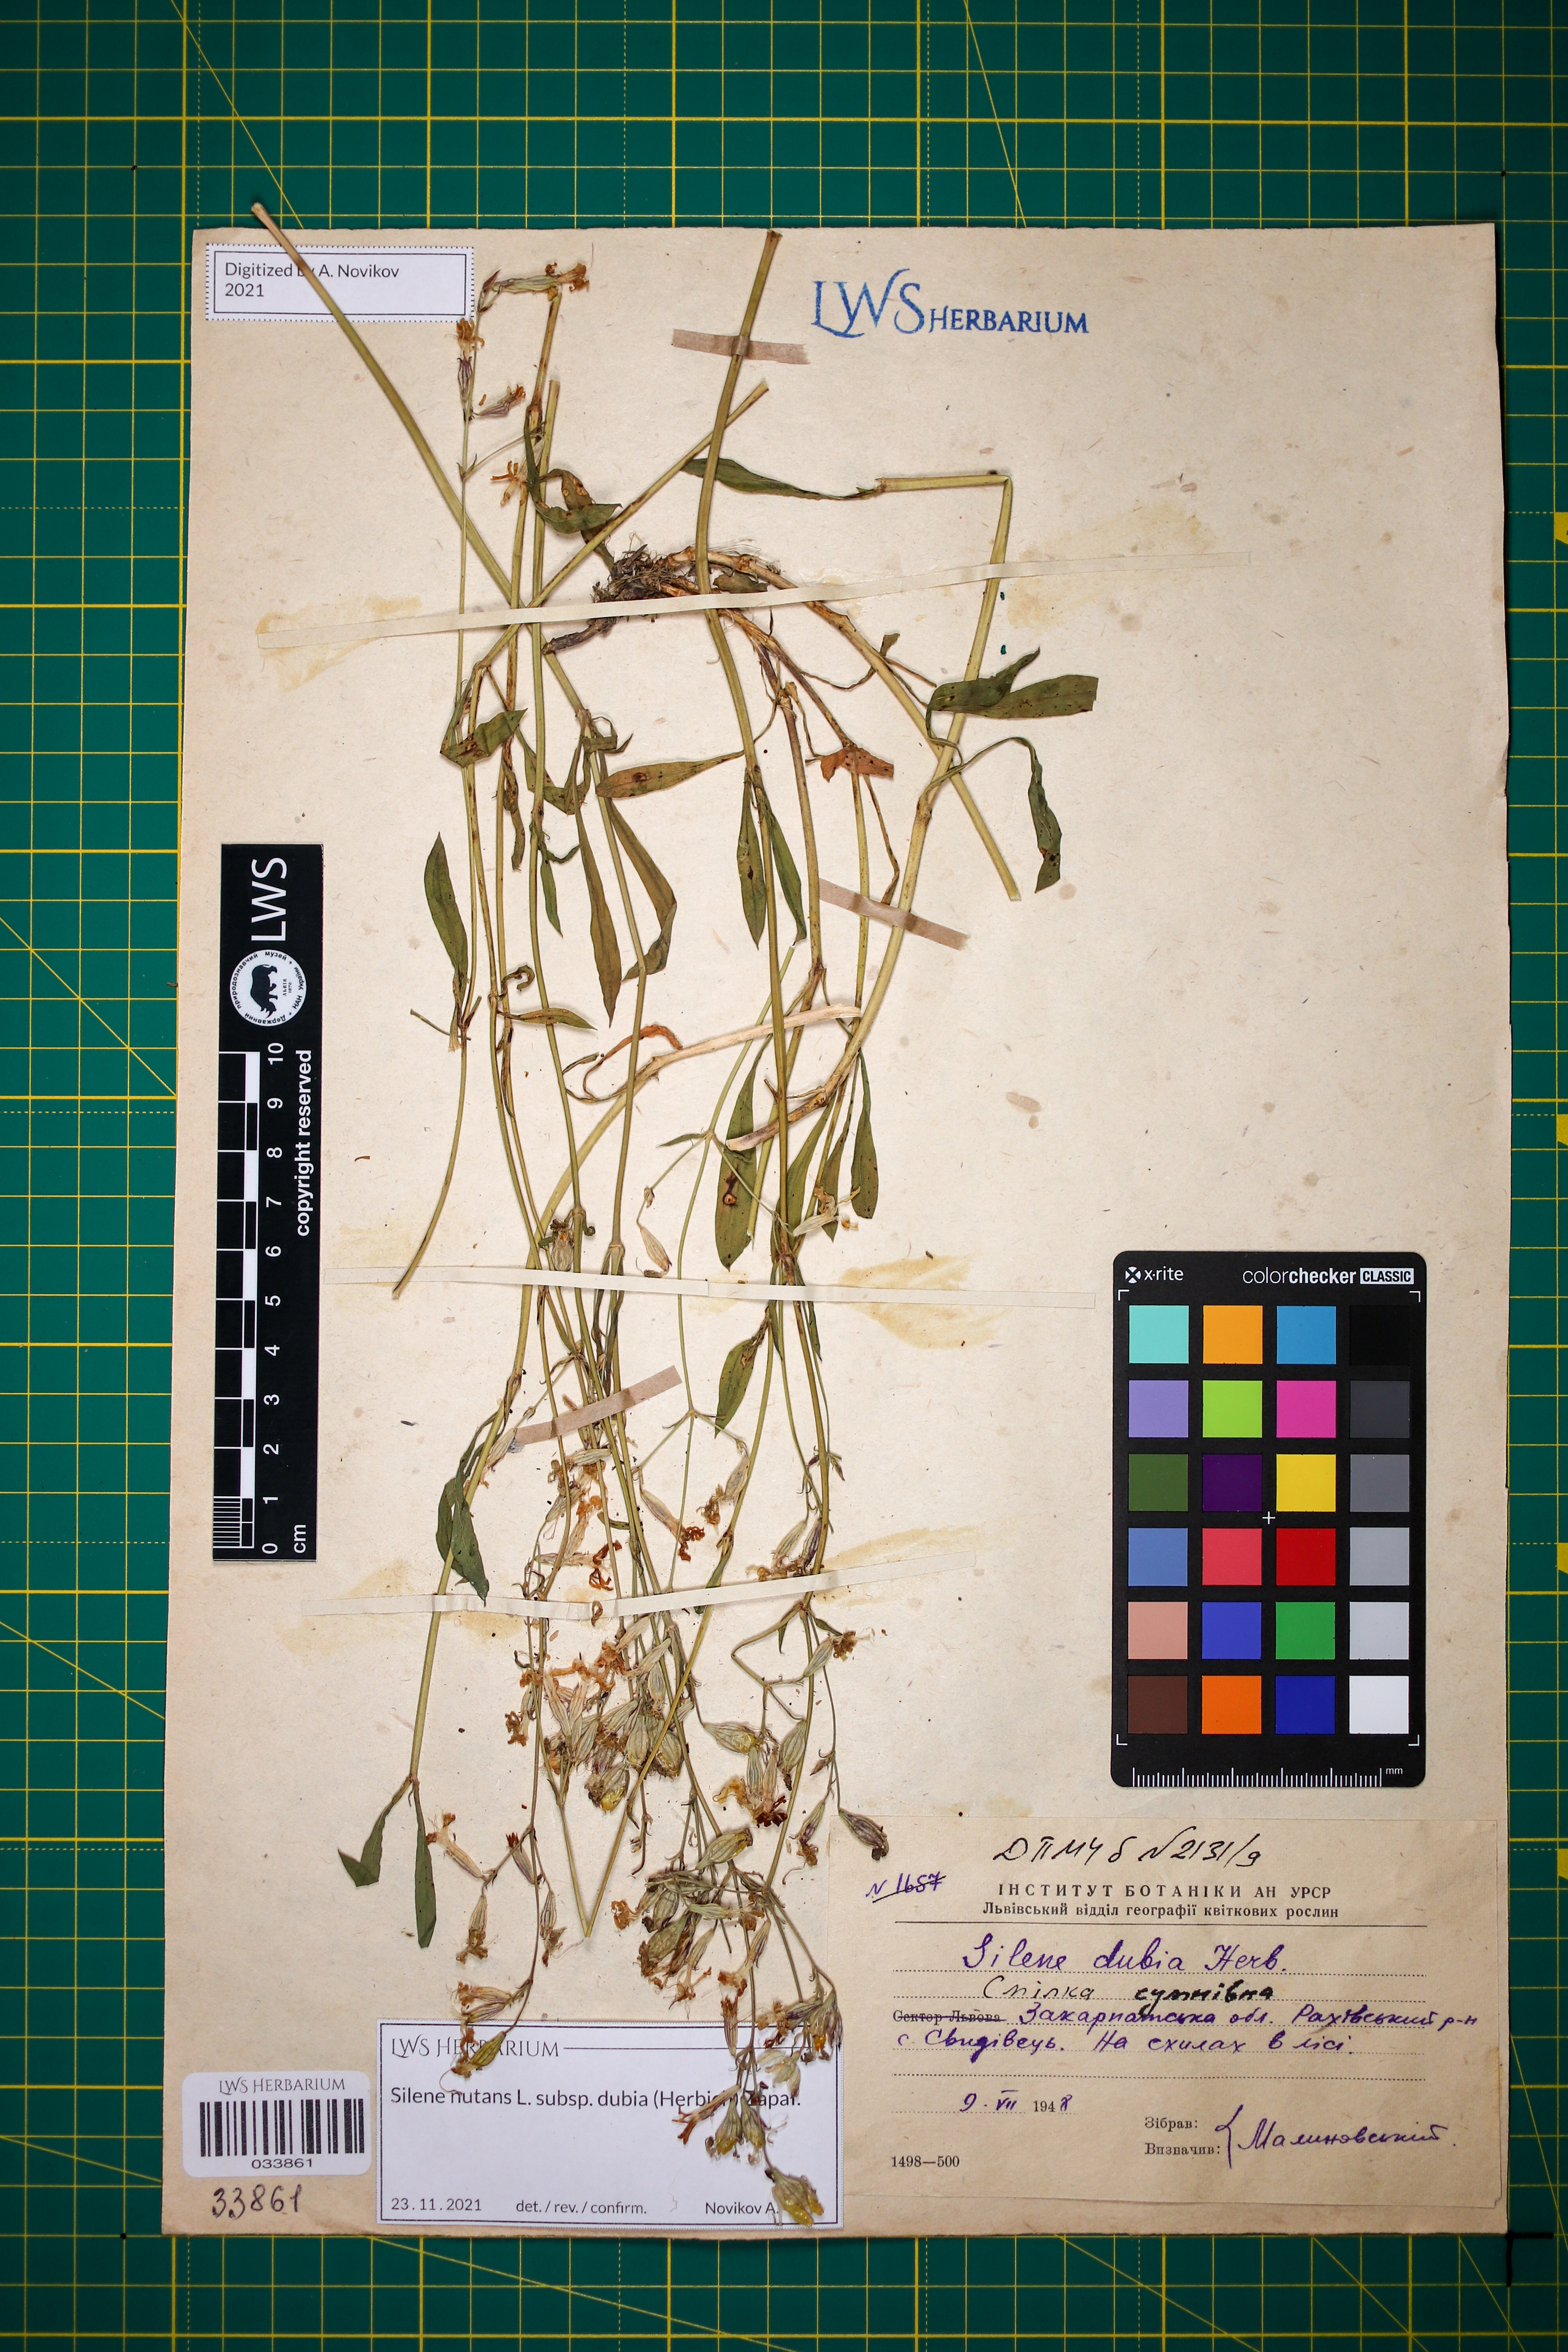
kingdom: Plantae
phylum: Tracheophyta
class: Magnoliopsida
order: Caryophyllales
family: Caryophyllaceae
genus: Silene
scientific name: Silene nutans
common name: Nottingham catchfly
